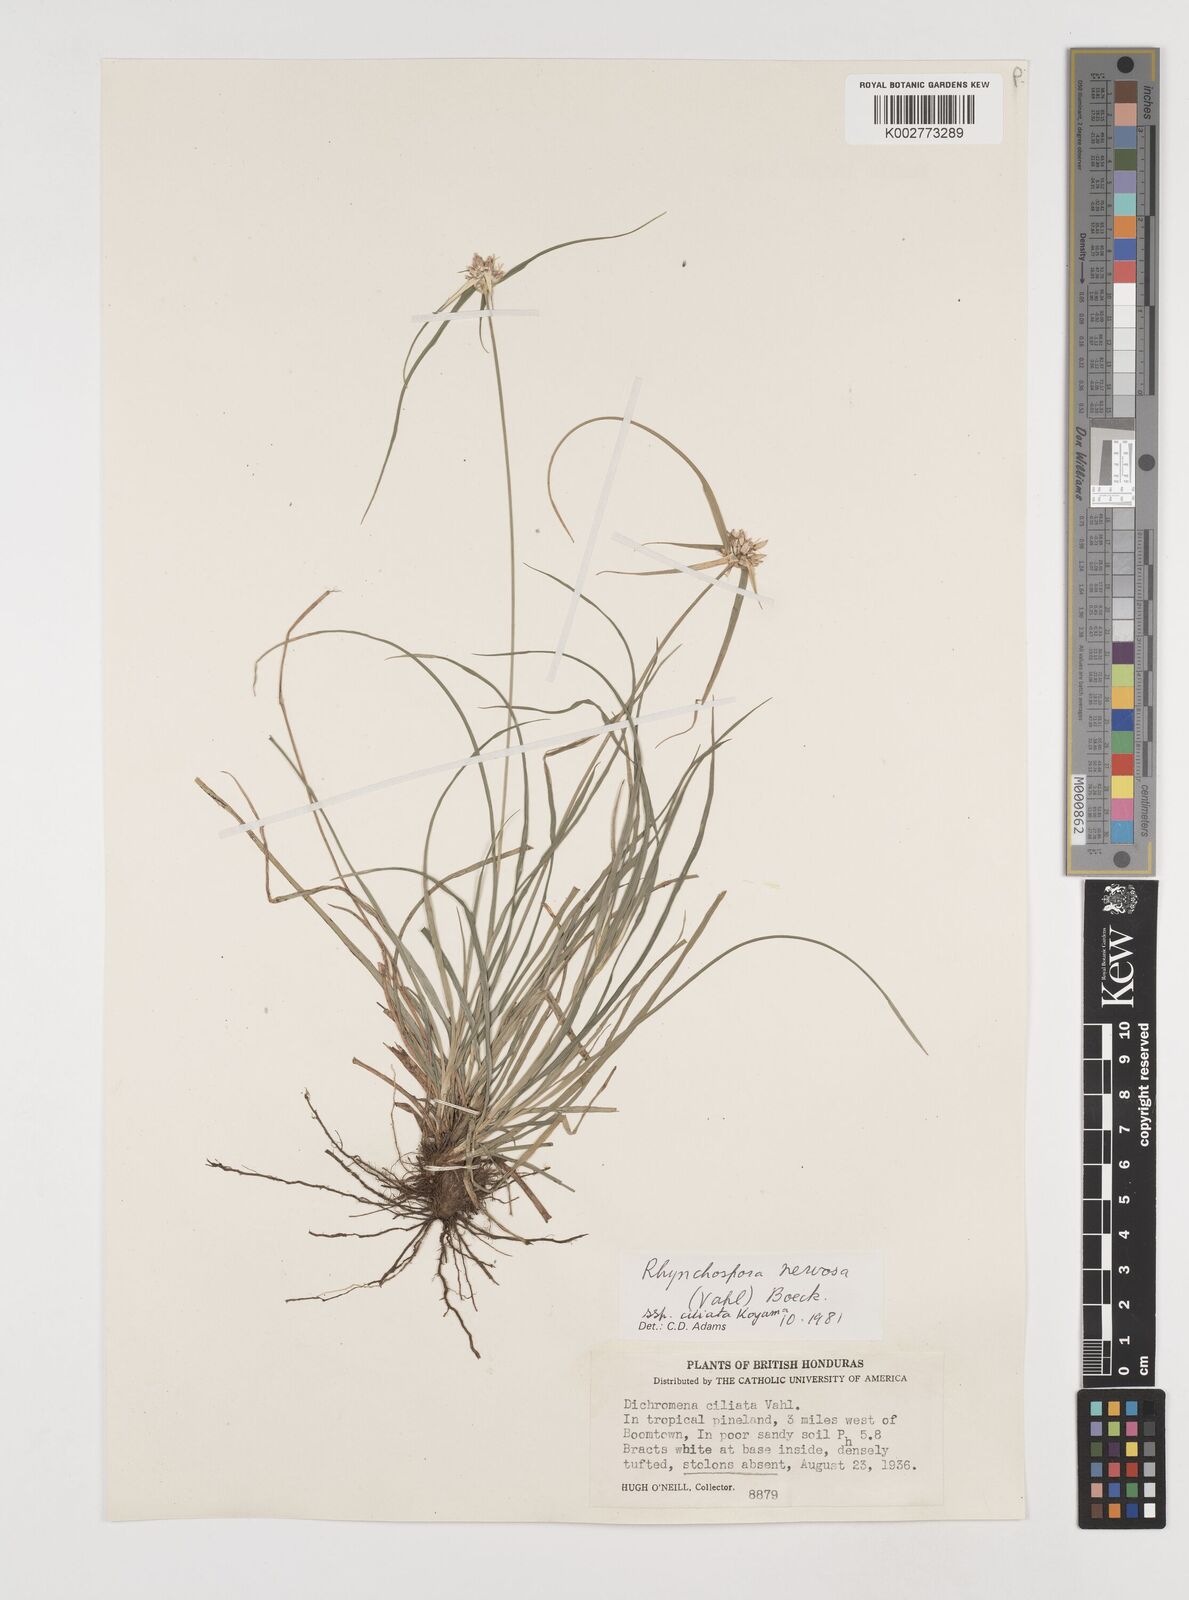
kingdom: Plantae
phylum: Tracheophyta
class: Liliopsida
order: Poales
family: Cyperaceae
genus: Rhynchospora
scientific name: Rhynchospora pura
